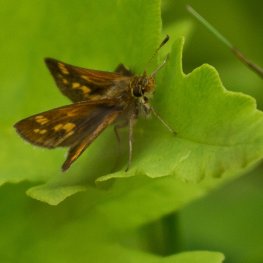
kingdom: Animalia
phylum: Arthropoda
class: Insecta
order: Lepidoptera
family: Hesperiidae
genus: Polites
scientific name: Polites coras
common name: Peck's Skipper
